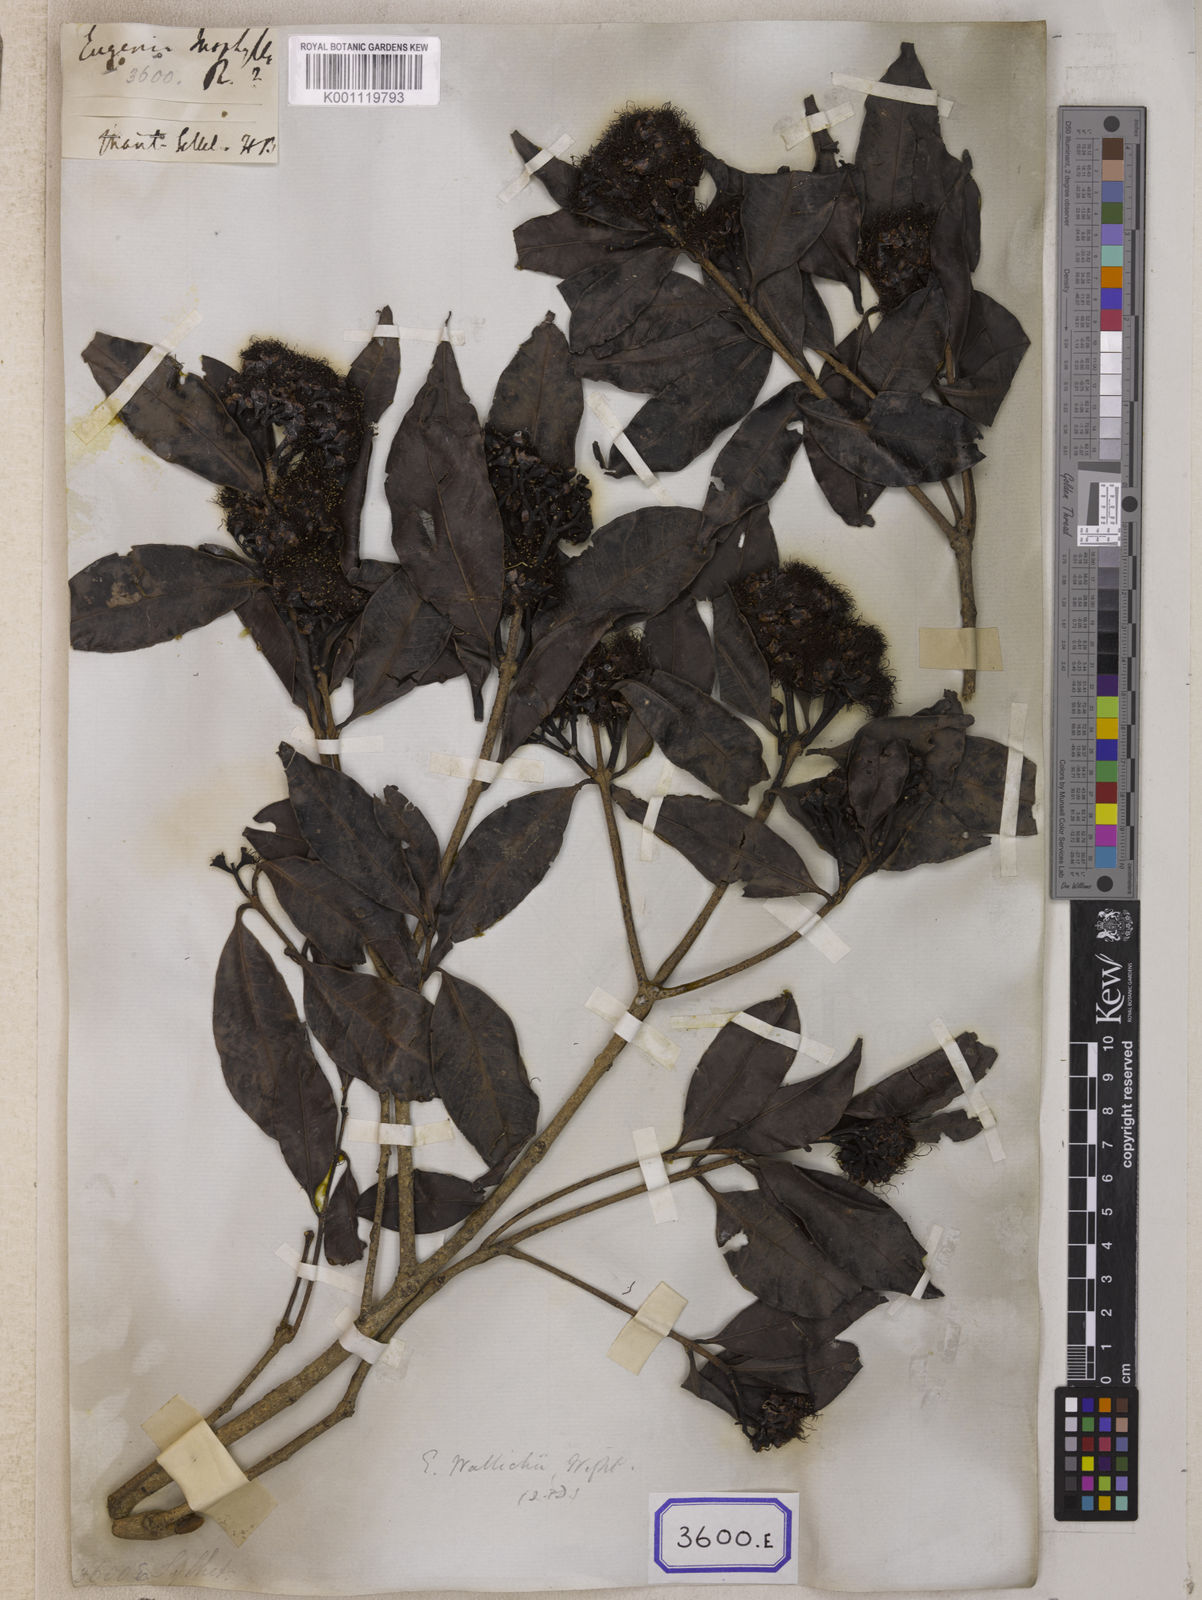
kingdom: Plantae
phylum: Tracheophyta
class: Magnoliopsida
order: Myrtales
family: Myrtaceae
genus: Syzygium
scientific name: Syzygium inophyllum
